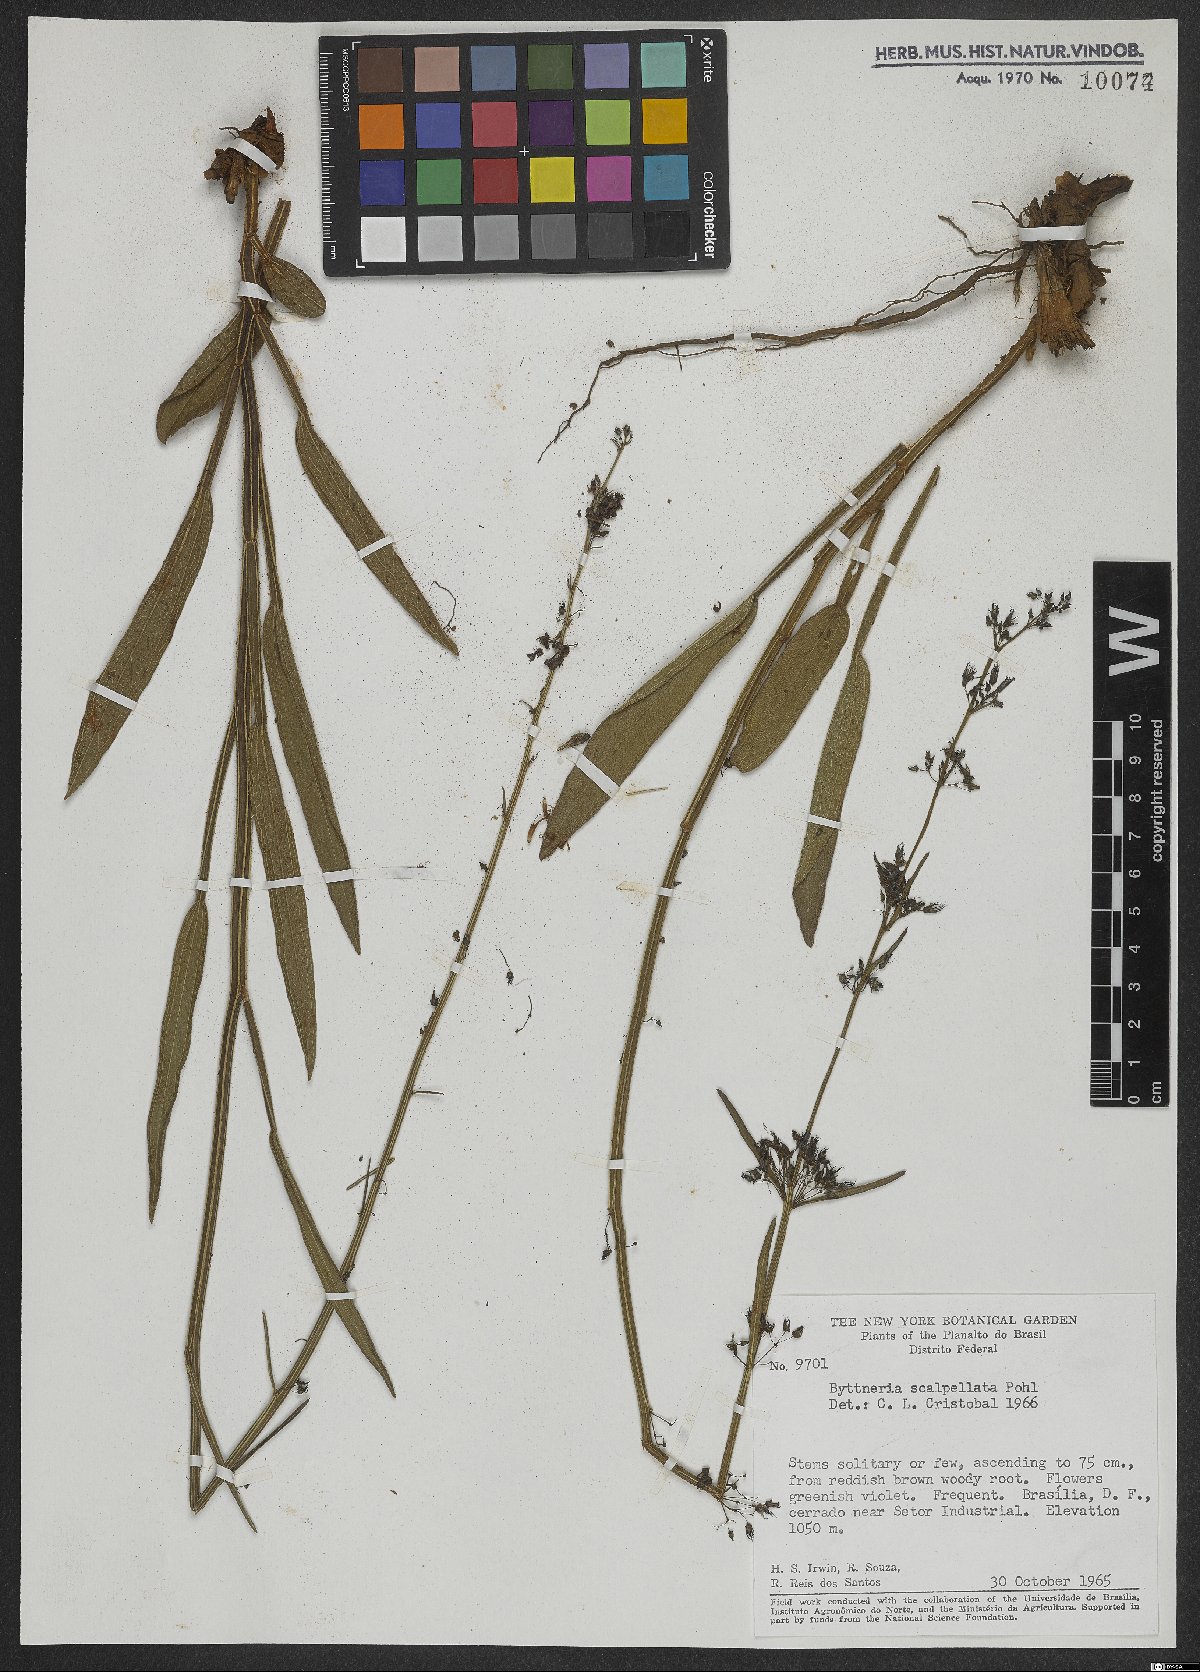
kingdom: Plantae
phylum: Tracheophyta
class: Magnoliopsida
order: Malvales
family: Malvaceae
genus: Byttneria
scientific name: Byttneria scalpellata
